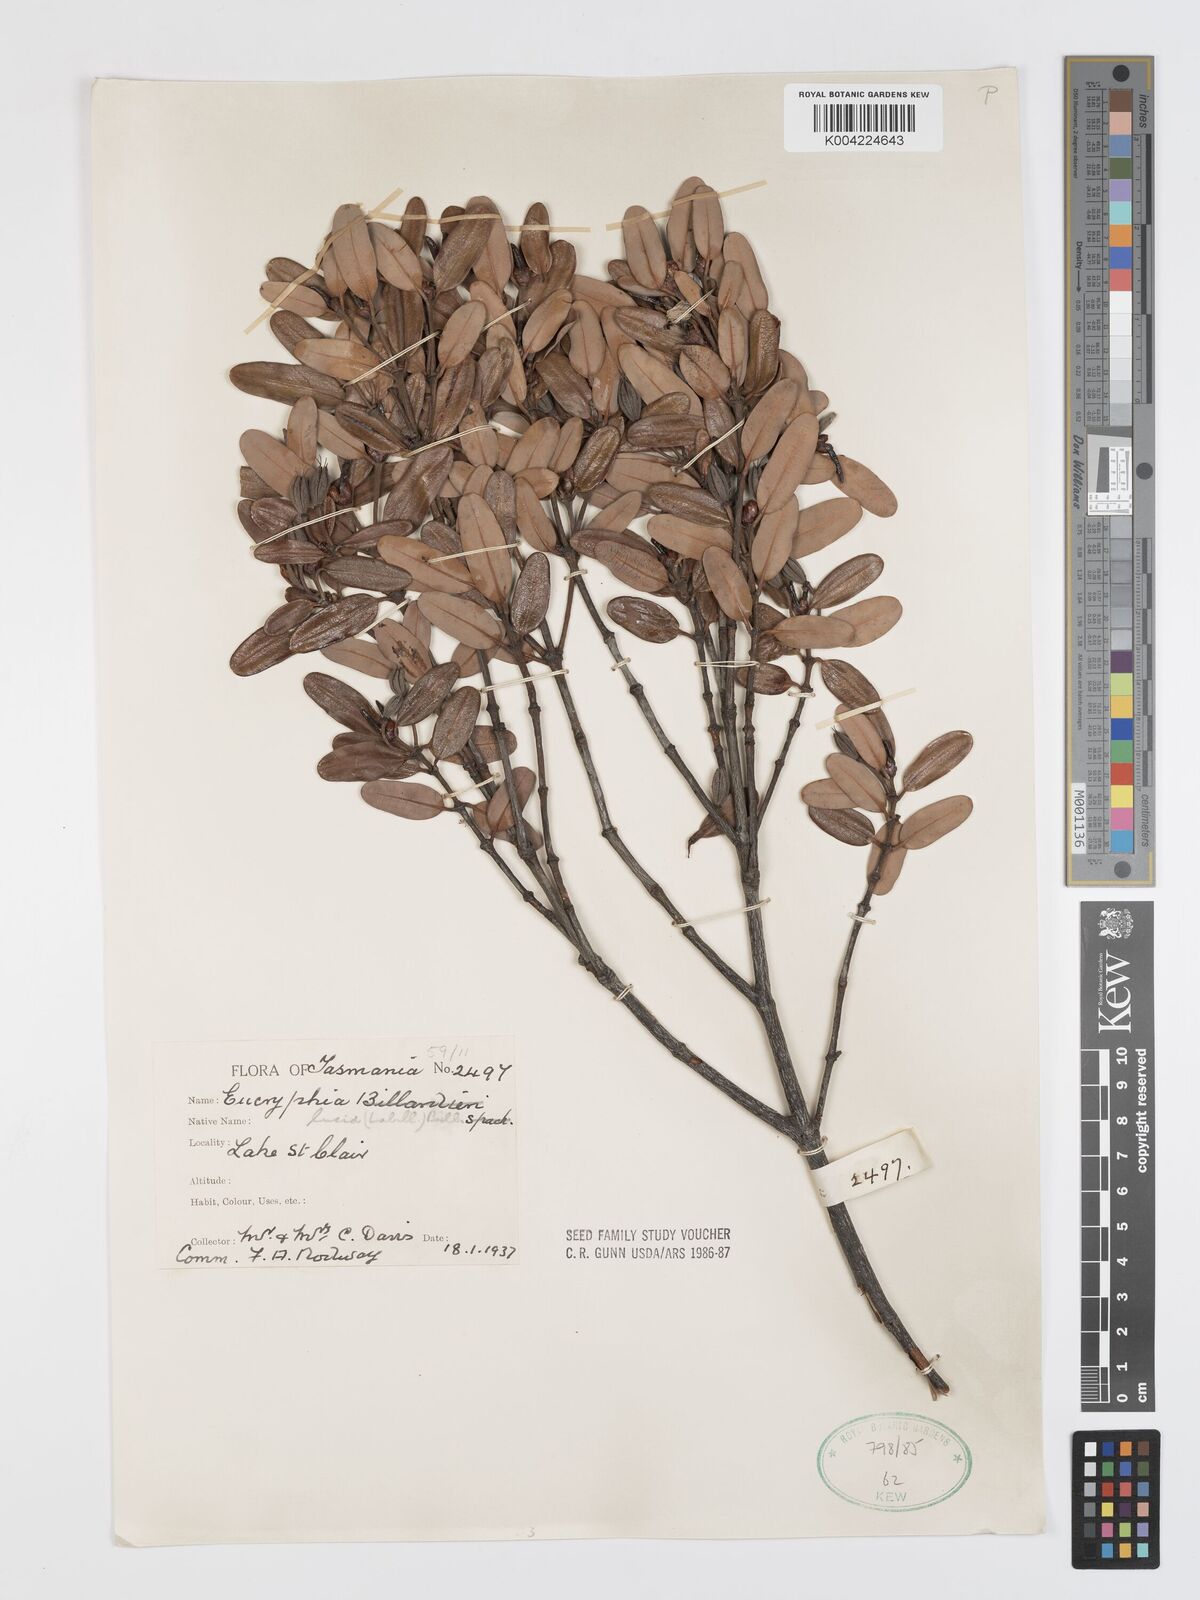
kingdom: Plantae
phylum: Tracheophyta
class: Magnoliopsida
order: Oxalidales
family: Cunoniaceae
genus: Eucryphia
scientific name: Eucryphia lucida
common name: Leatherwood
